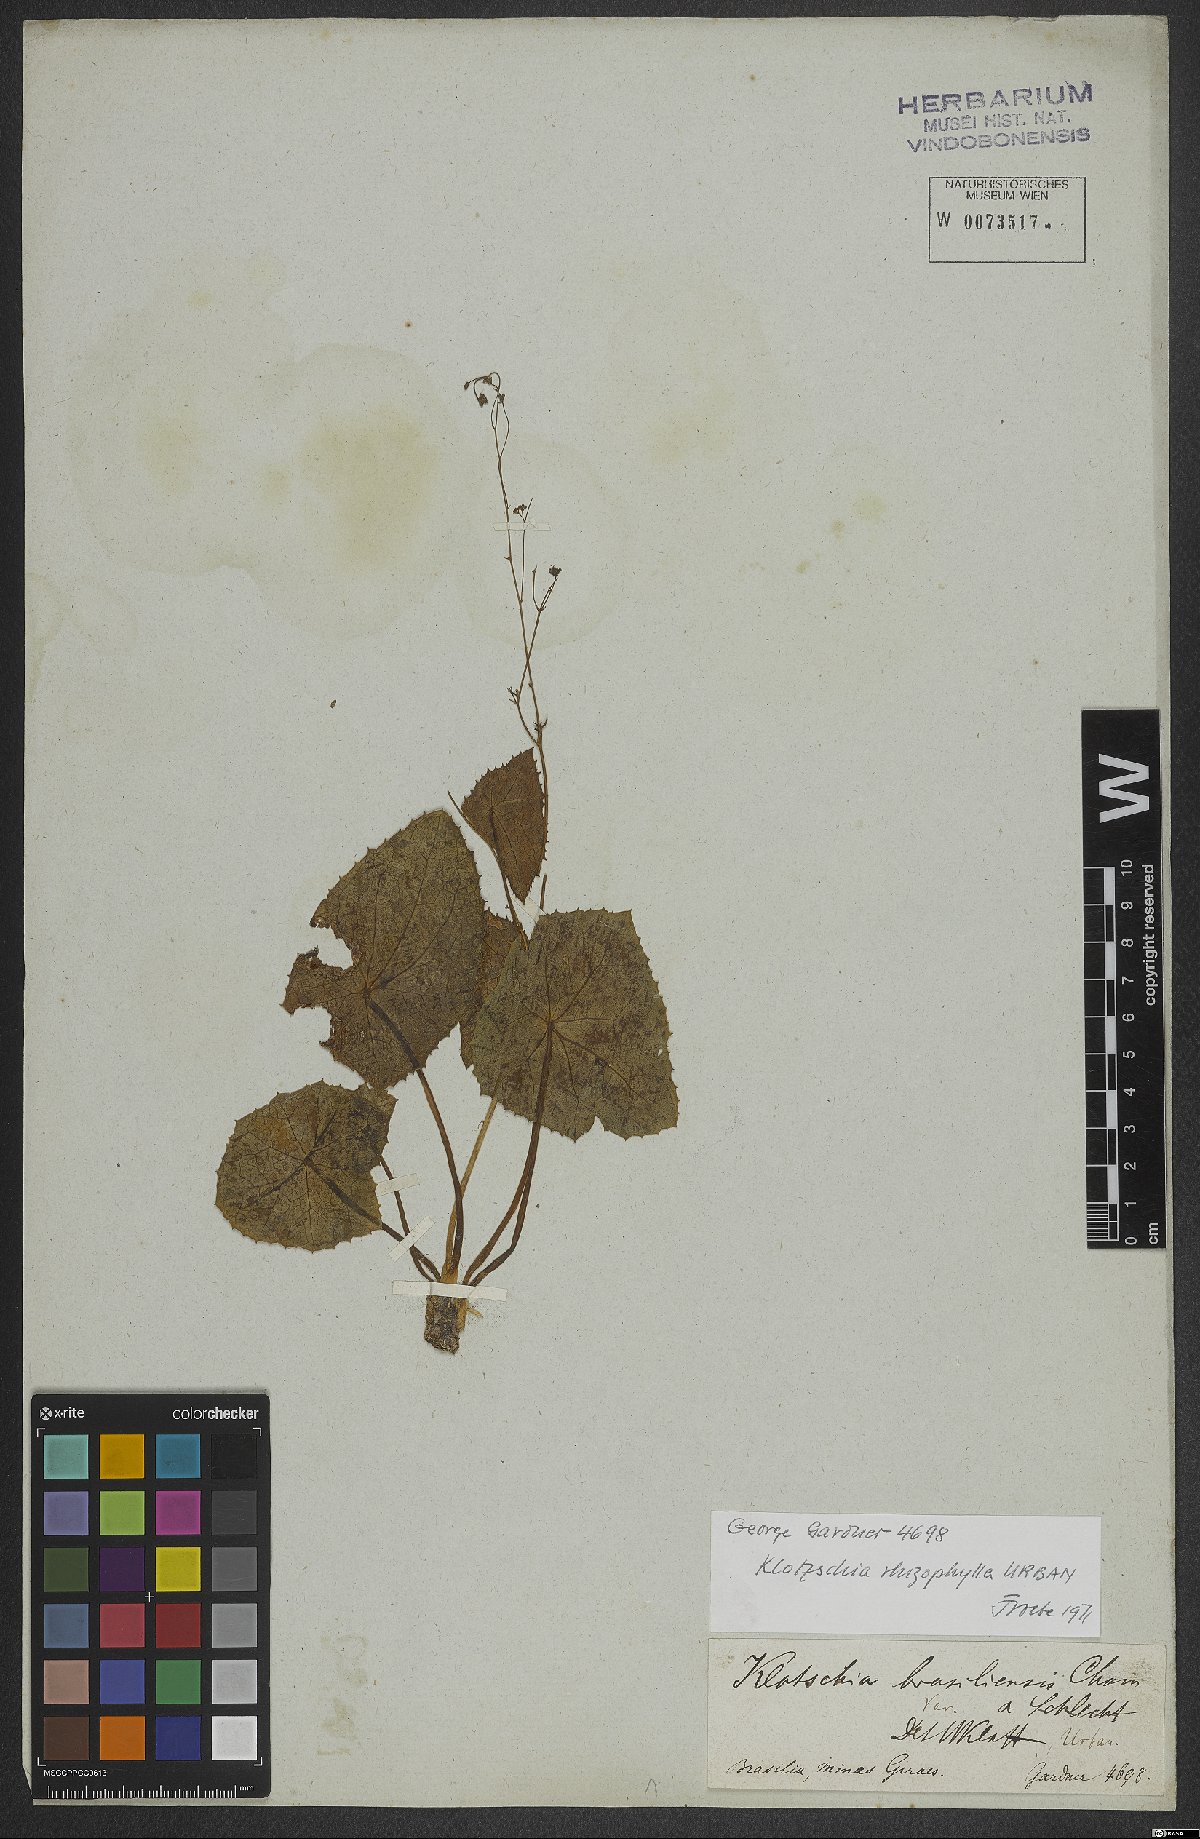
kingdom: Plantae
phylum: Tracheophyta
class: Magnoliopsida
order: Apiales
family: Apiaceae
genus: Klotzschia
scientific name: Klotzschia rhizophylla
